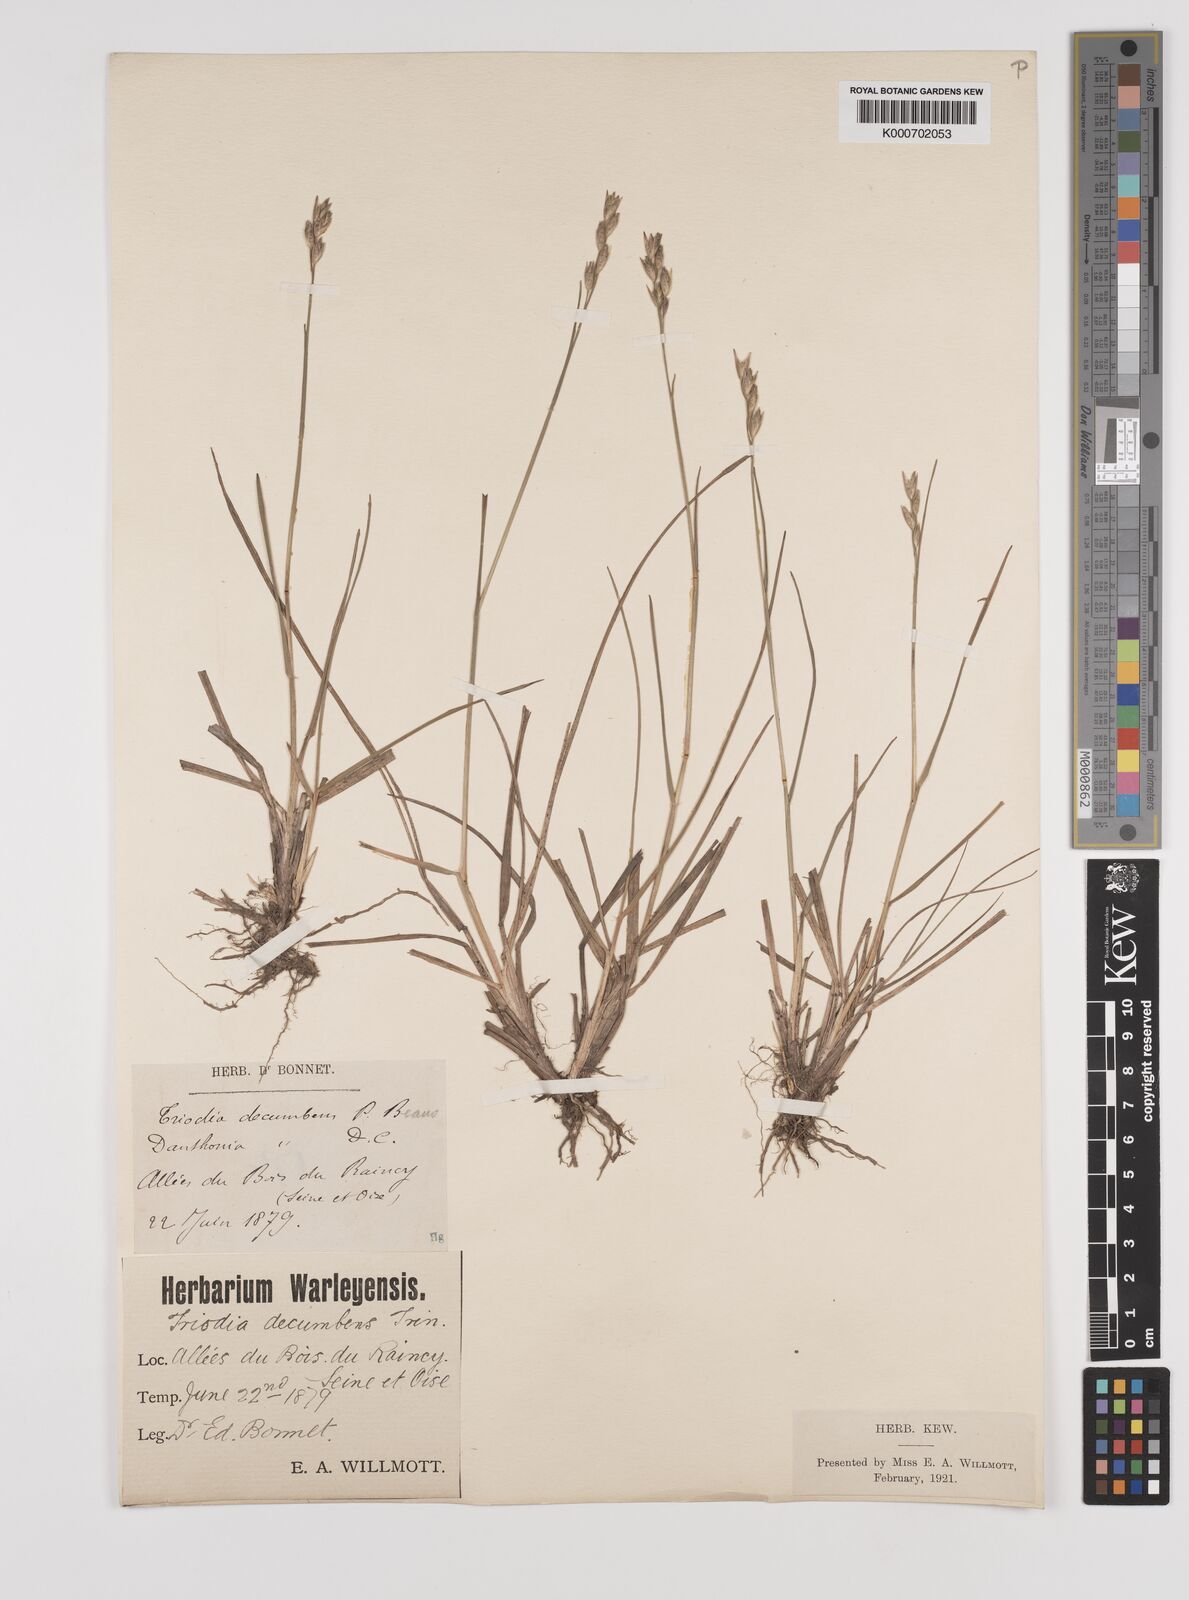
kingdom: Plantae
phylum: Tracheophyta
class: Liliopsida
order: Poales
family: Poaceae
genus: Danthonia
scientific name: Danthonia decumbens
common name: Common heathgrass
